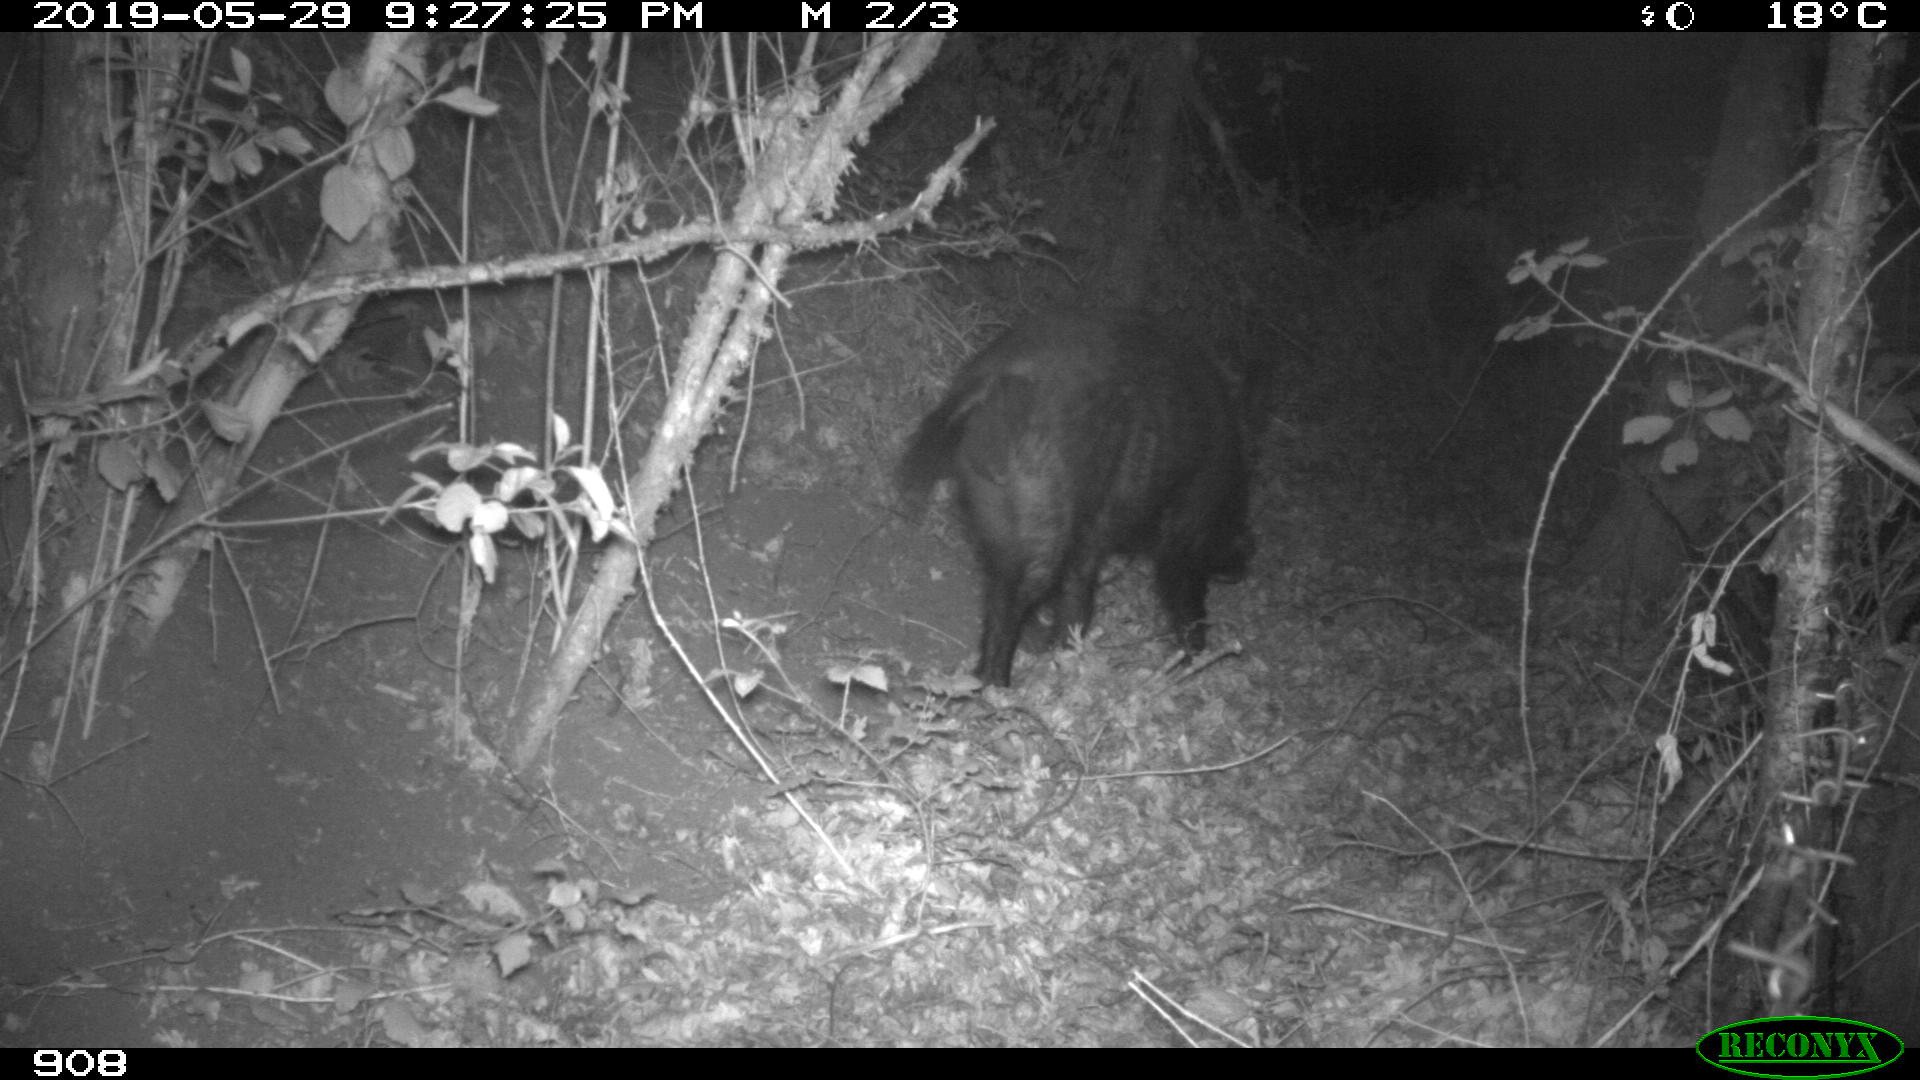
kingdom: Animalia
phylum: Chordata
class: Mammalia
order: Artiodactyla
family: Suidae
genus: Sus
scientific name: Sus scrofa
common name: Wild boar
